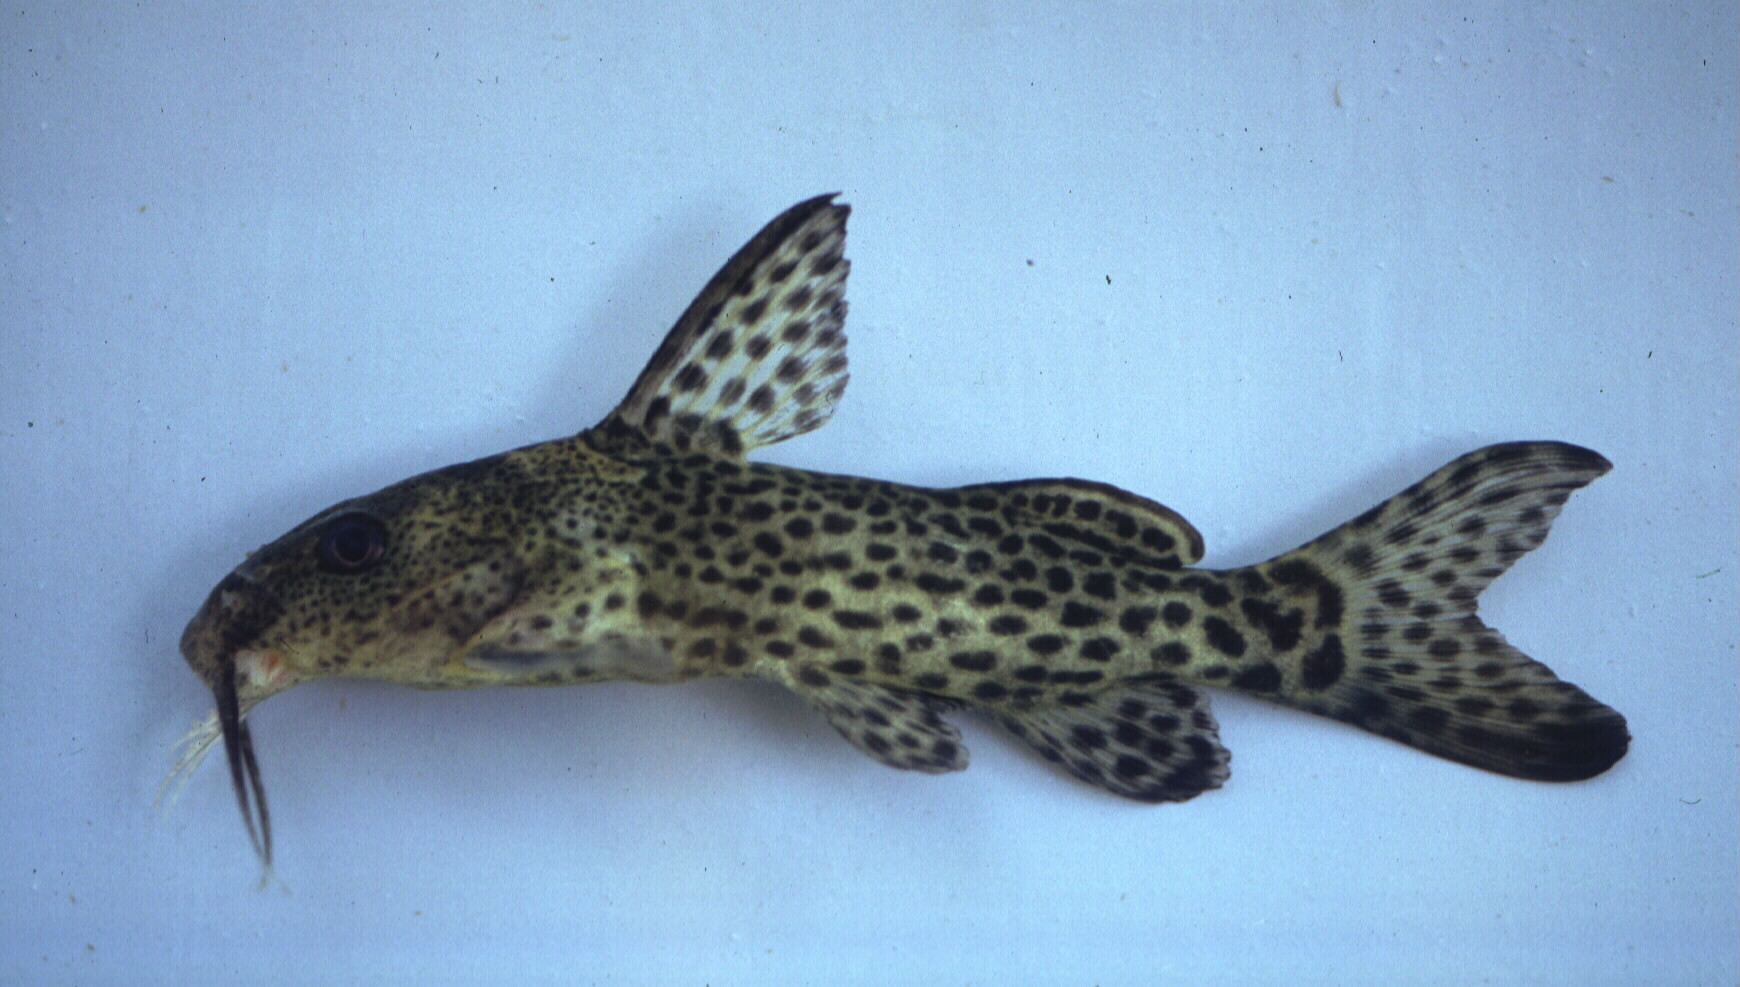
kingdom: Animalia
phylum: Chordata
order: Siluriformes
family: Mochokidae
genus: Synodontis
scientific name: Synodontis macrostoma
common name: Largemouth squeaker
